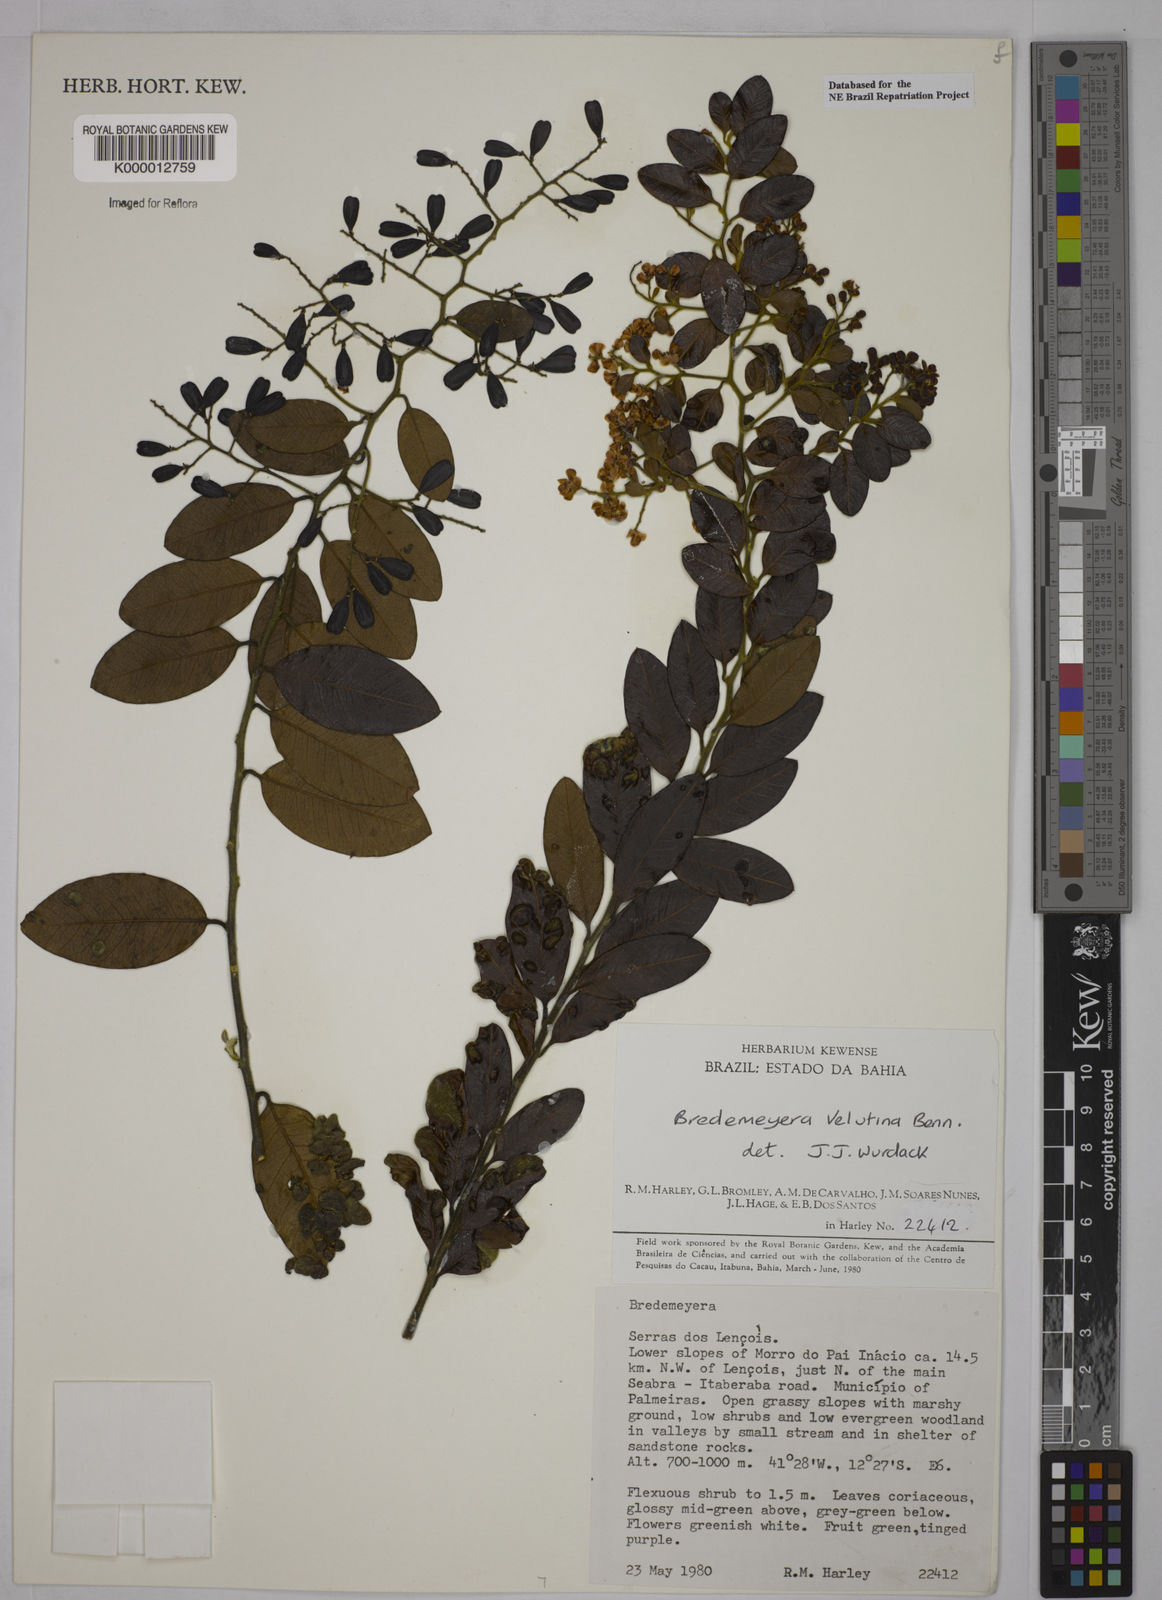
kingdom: Plantae
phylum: Tracheophyta
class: Magnoliopsida
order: Fabales
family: Polygalaceae
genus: Bredemeyera
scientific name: Bredemeyera hebeclada
